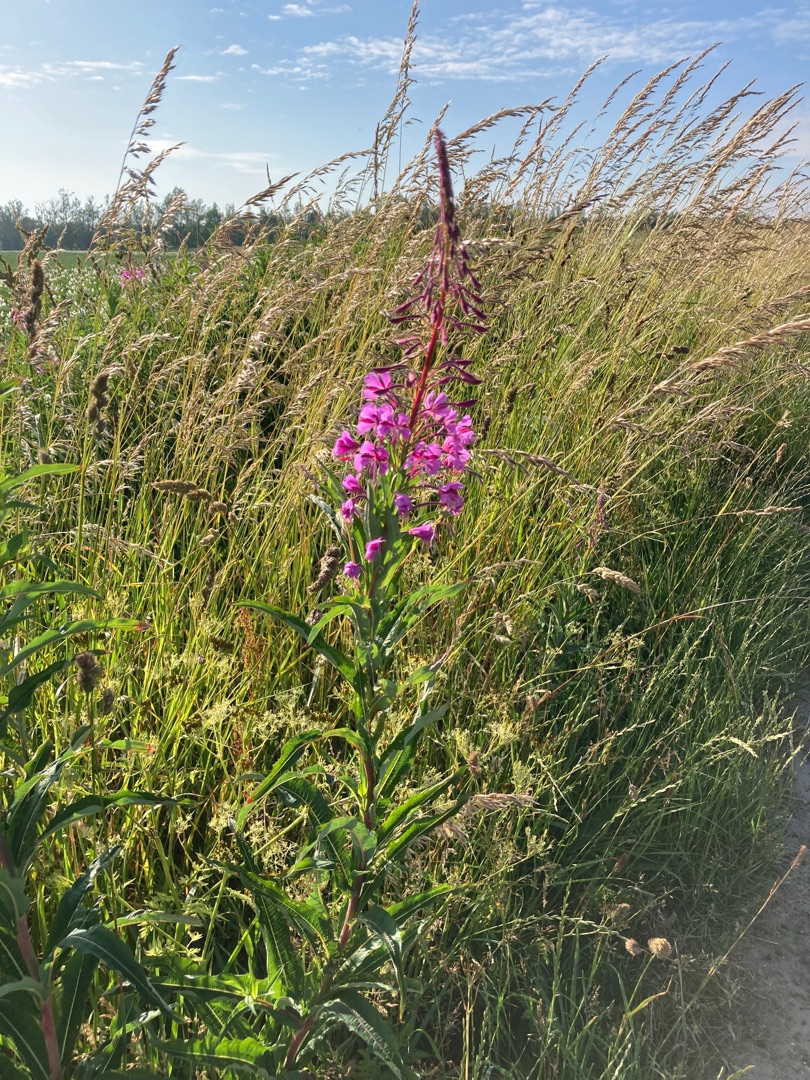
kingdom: Plantae
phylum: Tracheophyta
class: Magnoliopsida
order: Myrtales
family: Onagraceae
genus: Chamaenerion
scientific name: Chamaenerion angustifolium
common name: Gederams
